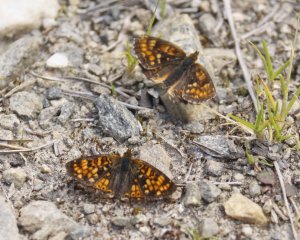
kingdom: Animalia
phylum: Arthropoda
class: Insecta
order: Lepidoptera
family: Nymphalidae
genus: Phyciodes
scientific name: Phyciodes tharos
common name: Field Crescent
